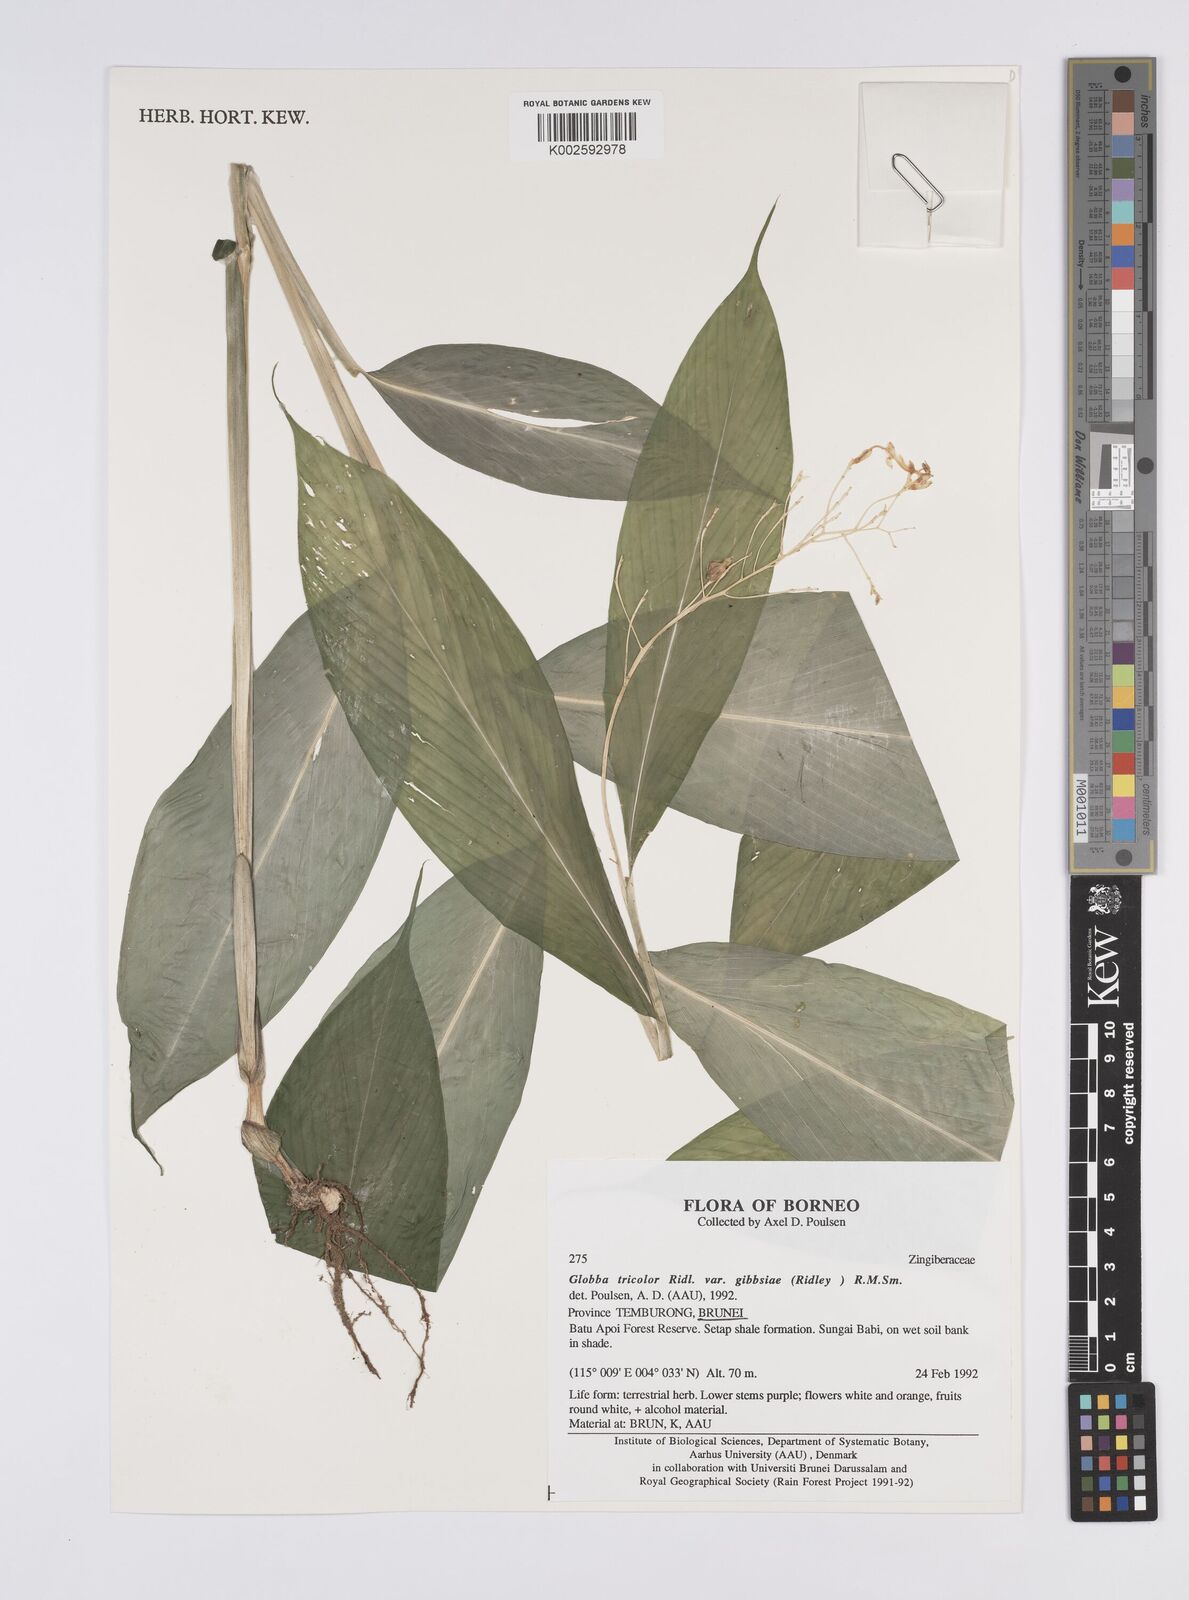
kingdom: Plantae
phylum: Tracheophyta
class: Liliopsida
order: Zingiberales
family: Zingiberaceae
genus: Globba
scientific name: Globba tricolor
